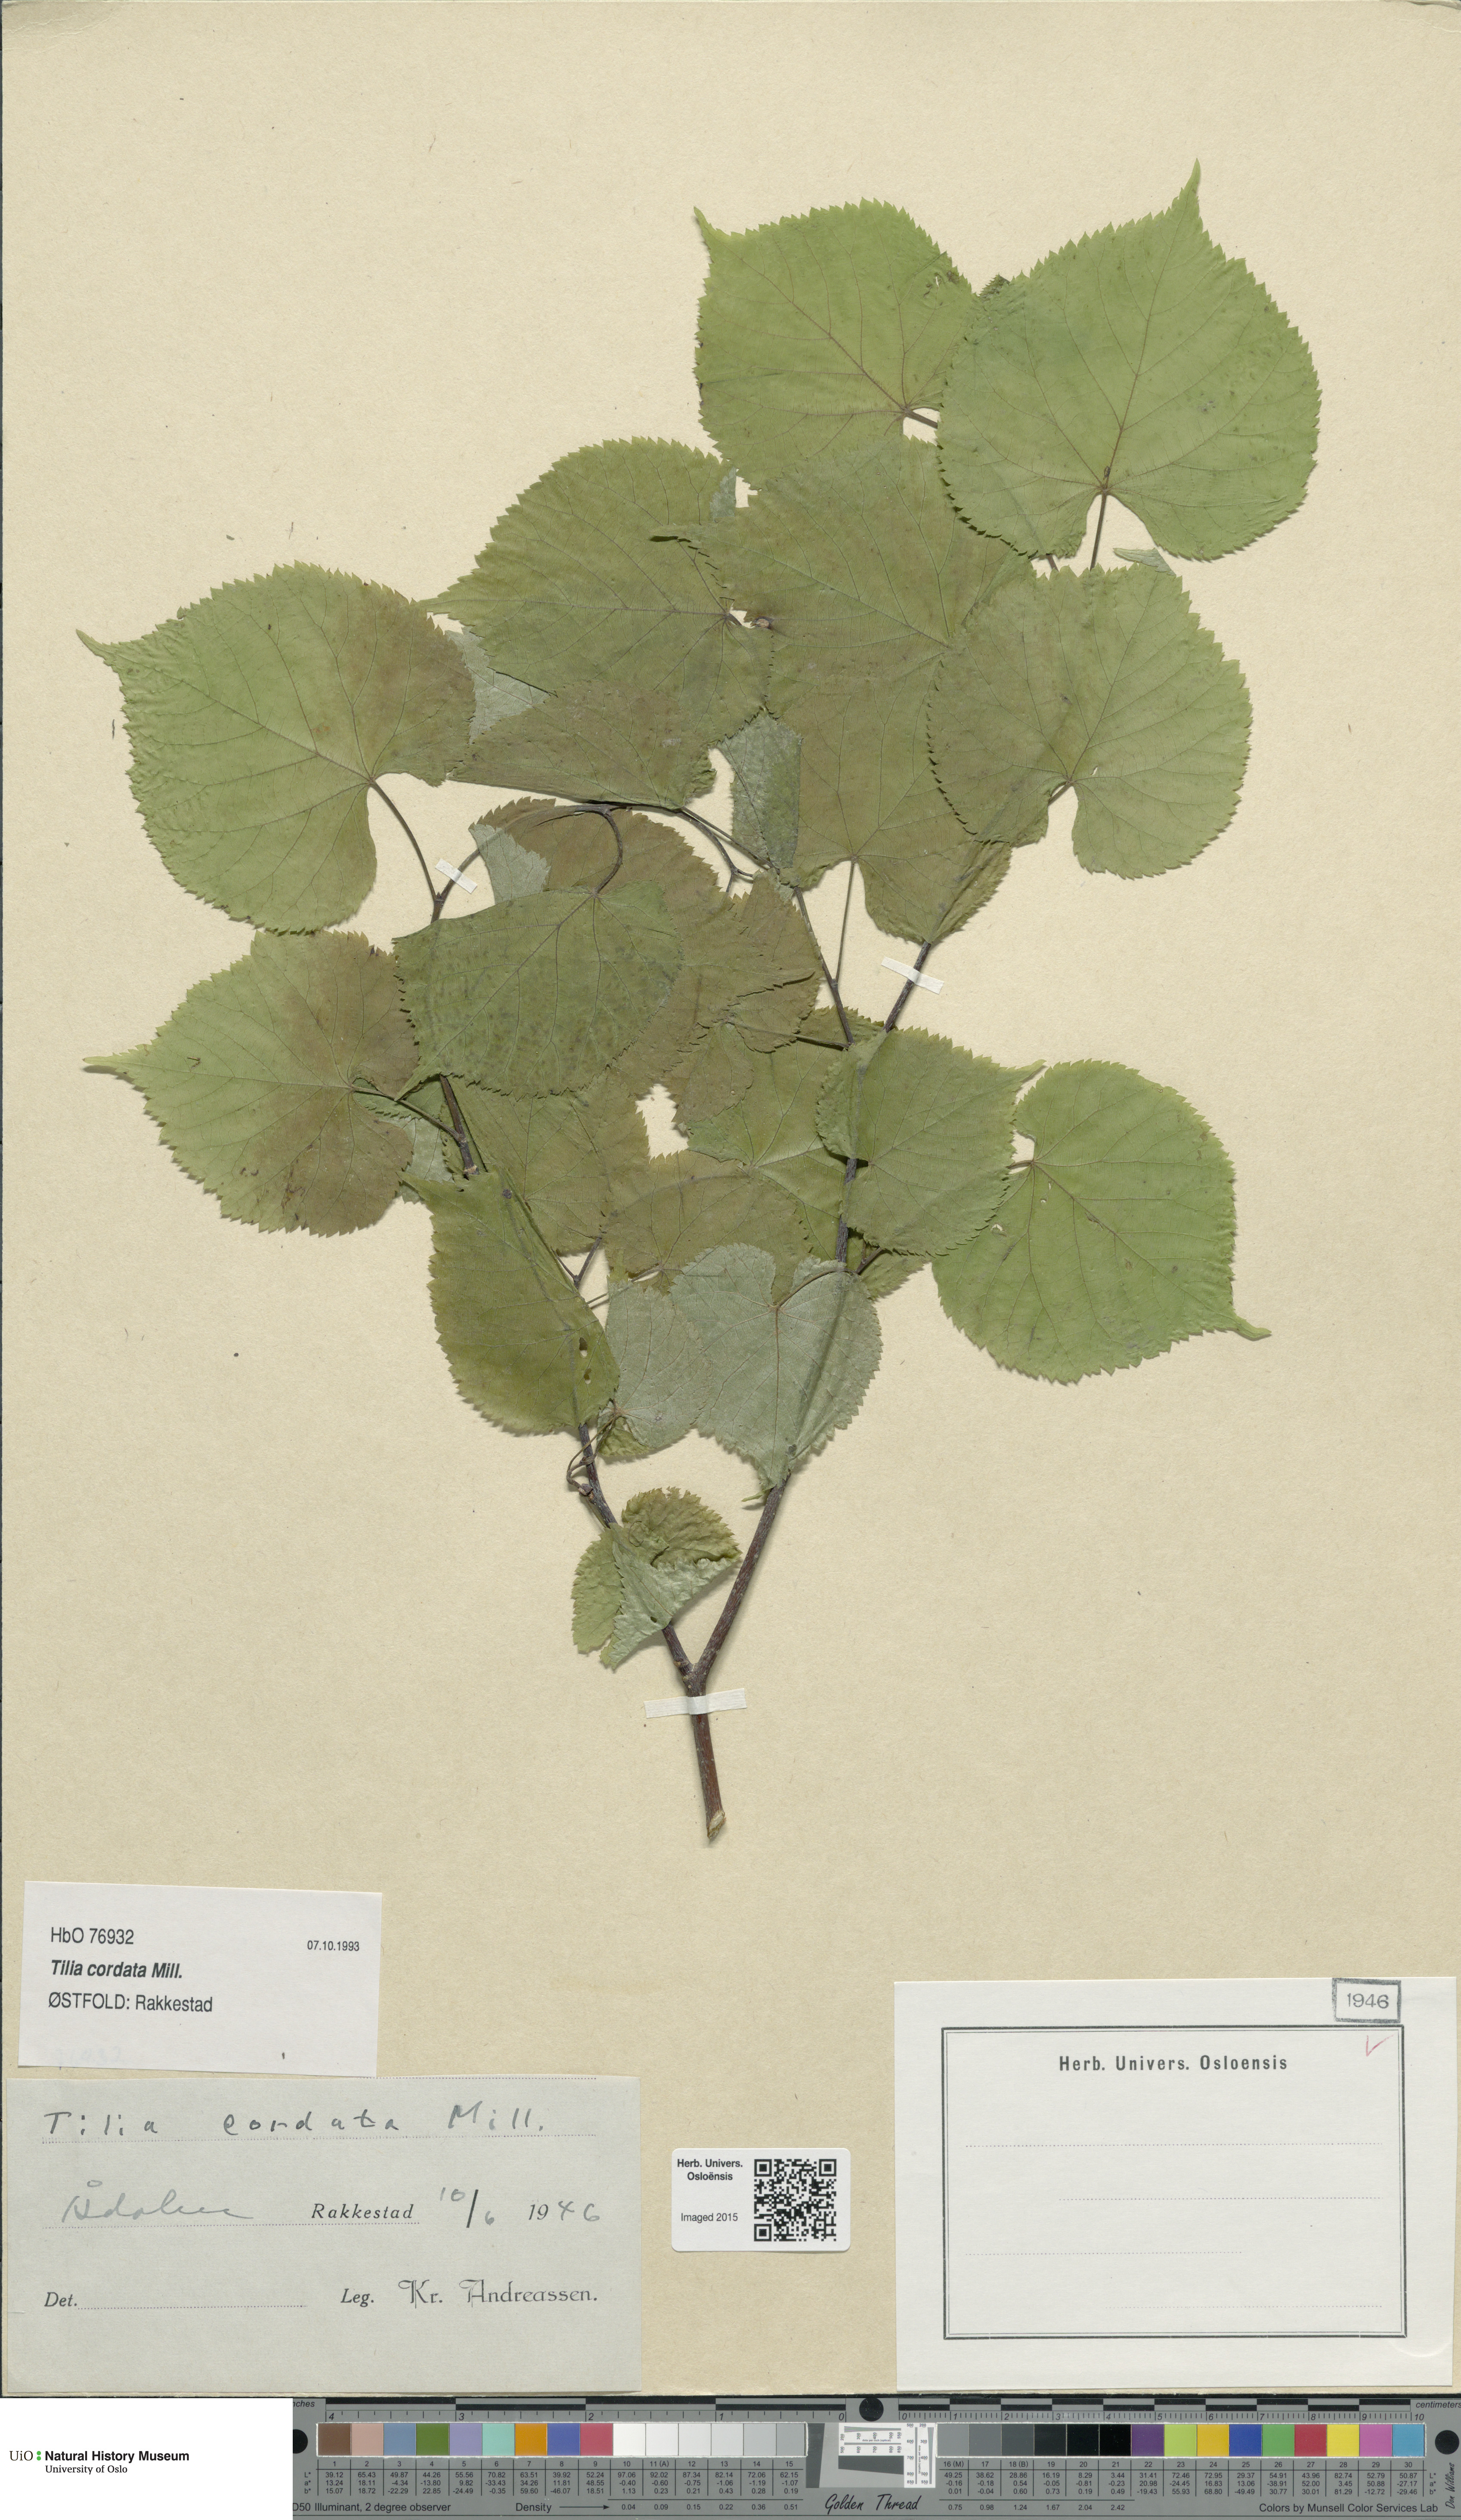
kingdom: Plantae
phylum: Tracheophyta
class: Magnoliopsida
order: Malvales
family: Malvaceae
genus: Tilia
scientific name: Tilia cordata
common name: Small-leaved lime
